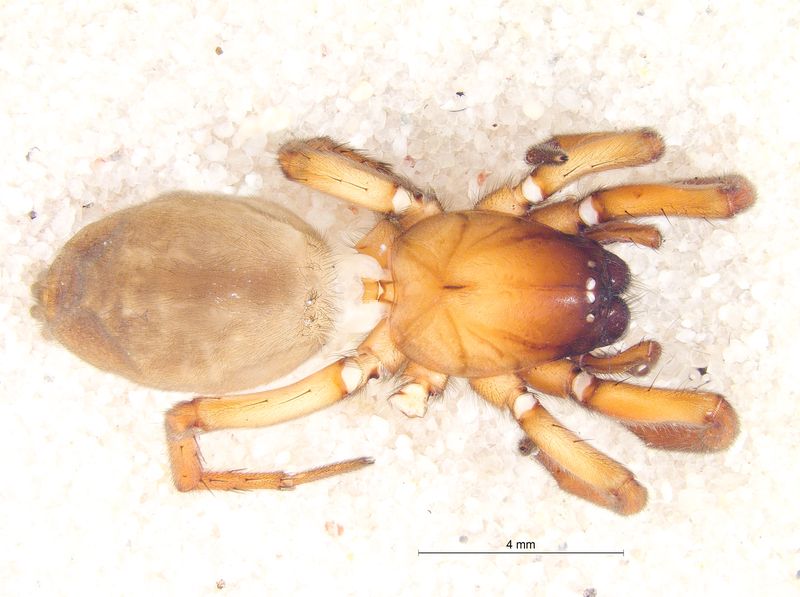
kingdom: Animalia
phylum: Arthropoda
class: Arachnida
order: Araneae
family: Gnaphosidae
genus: Haplodrassus
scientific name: Haplodrassus signifer
